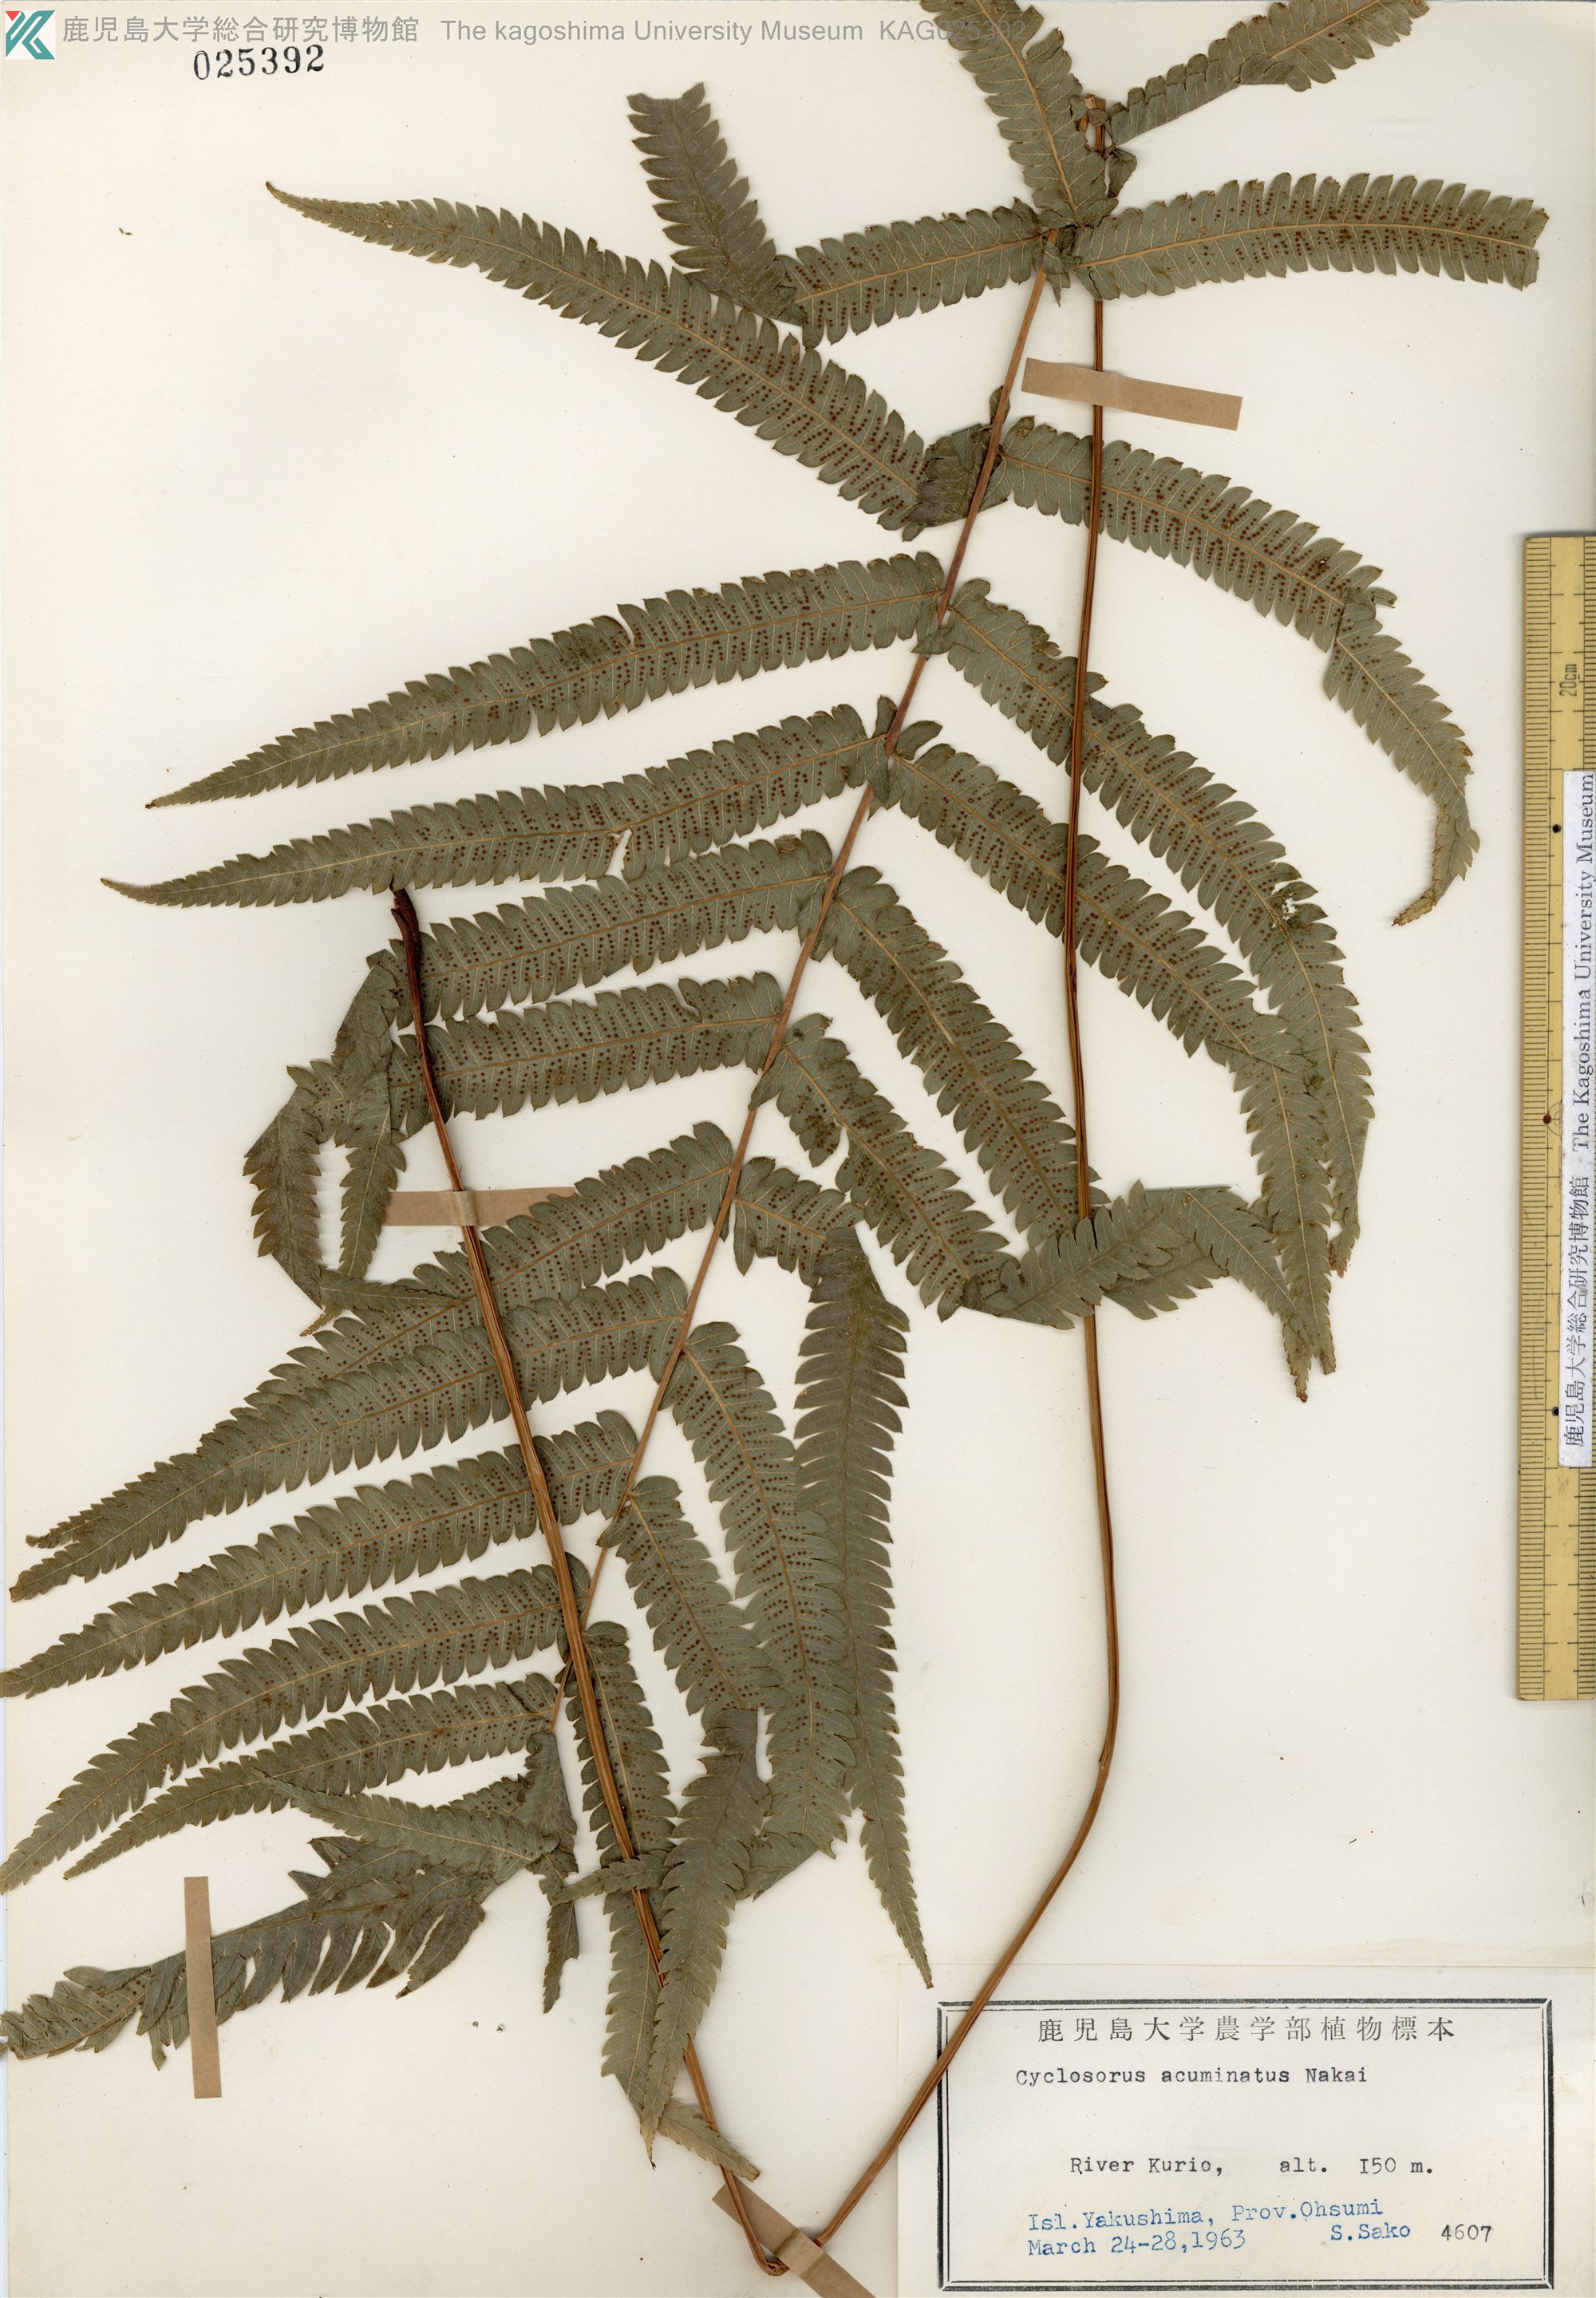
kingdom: Plantae
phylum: Tracheophyta
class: Polypodiopsida
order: Polypodiales
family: Thelypteridaceae
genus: Christella
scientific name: Christella acuminata
